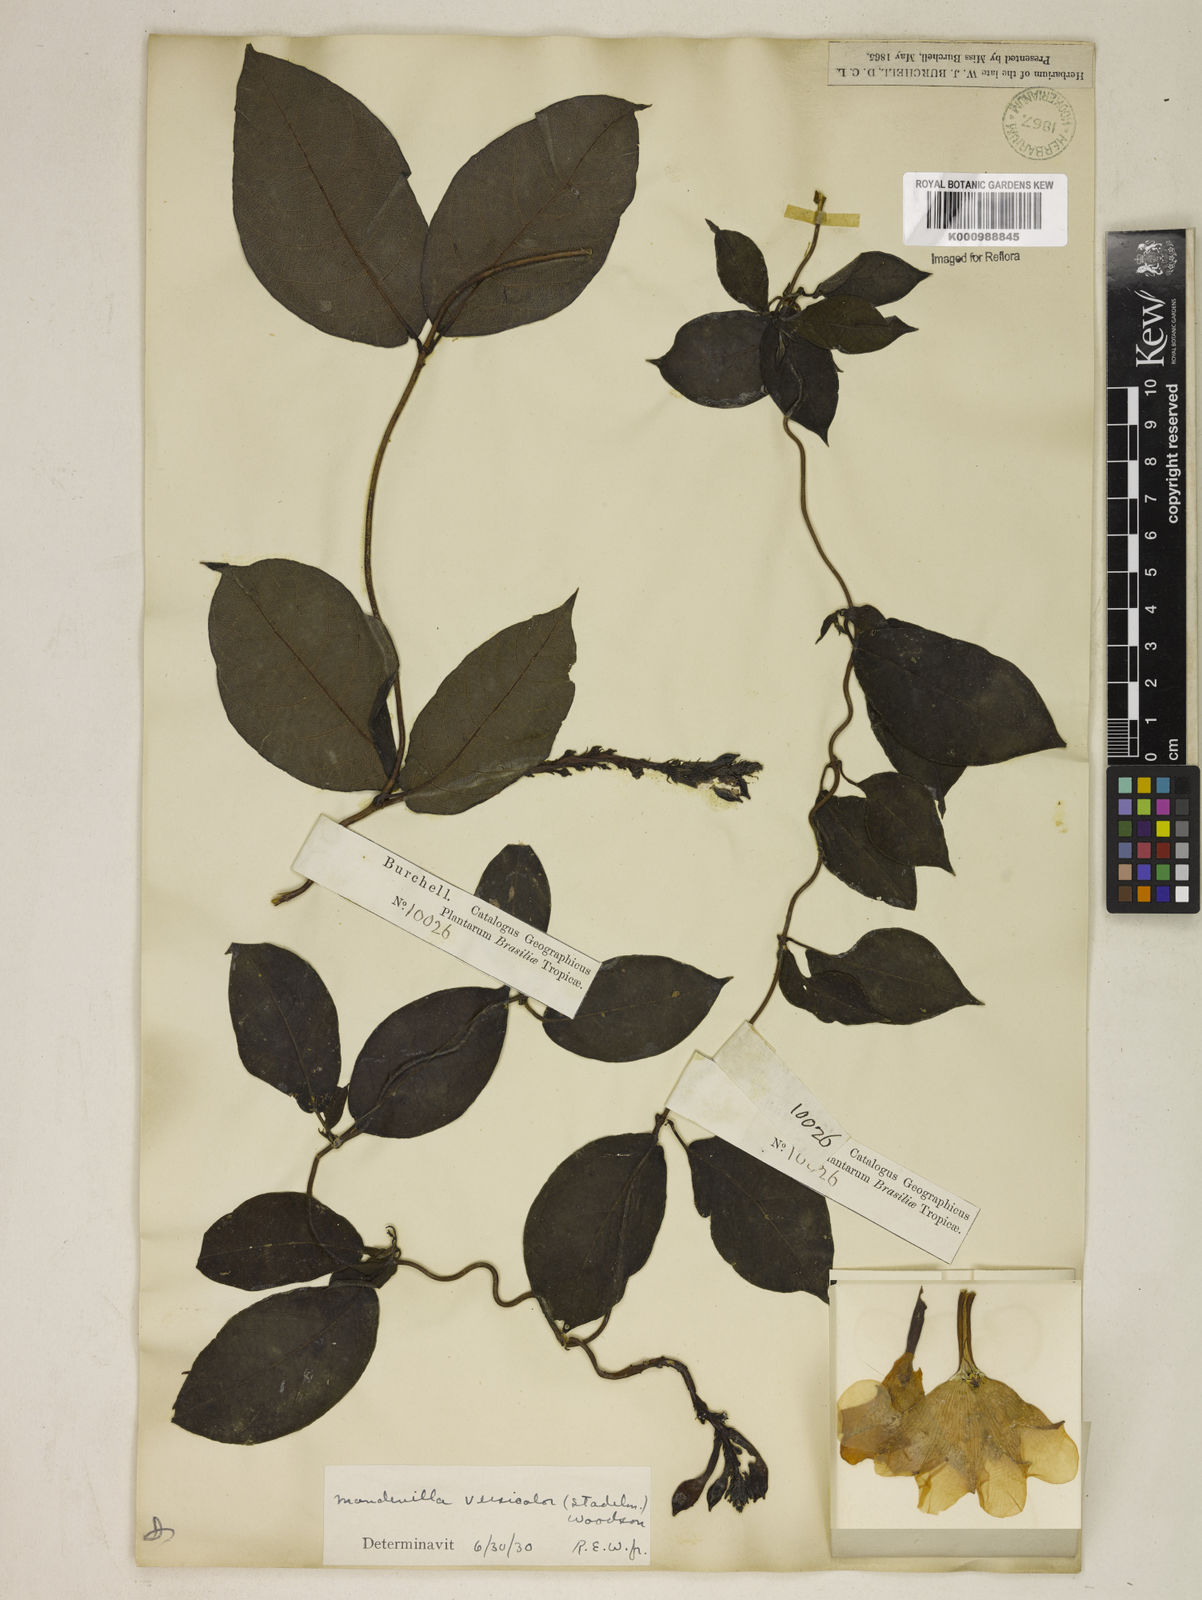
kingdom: Plantae
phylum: Tracheophyta
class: Magnoliopsida
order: Gentianales
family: Apocynaceae
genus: Mandevilla
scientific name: Mandevilla scabra
